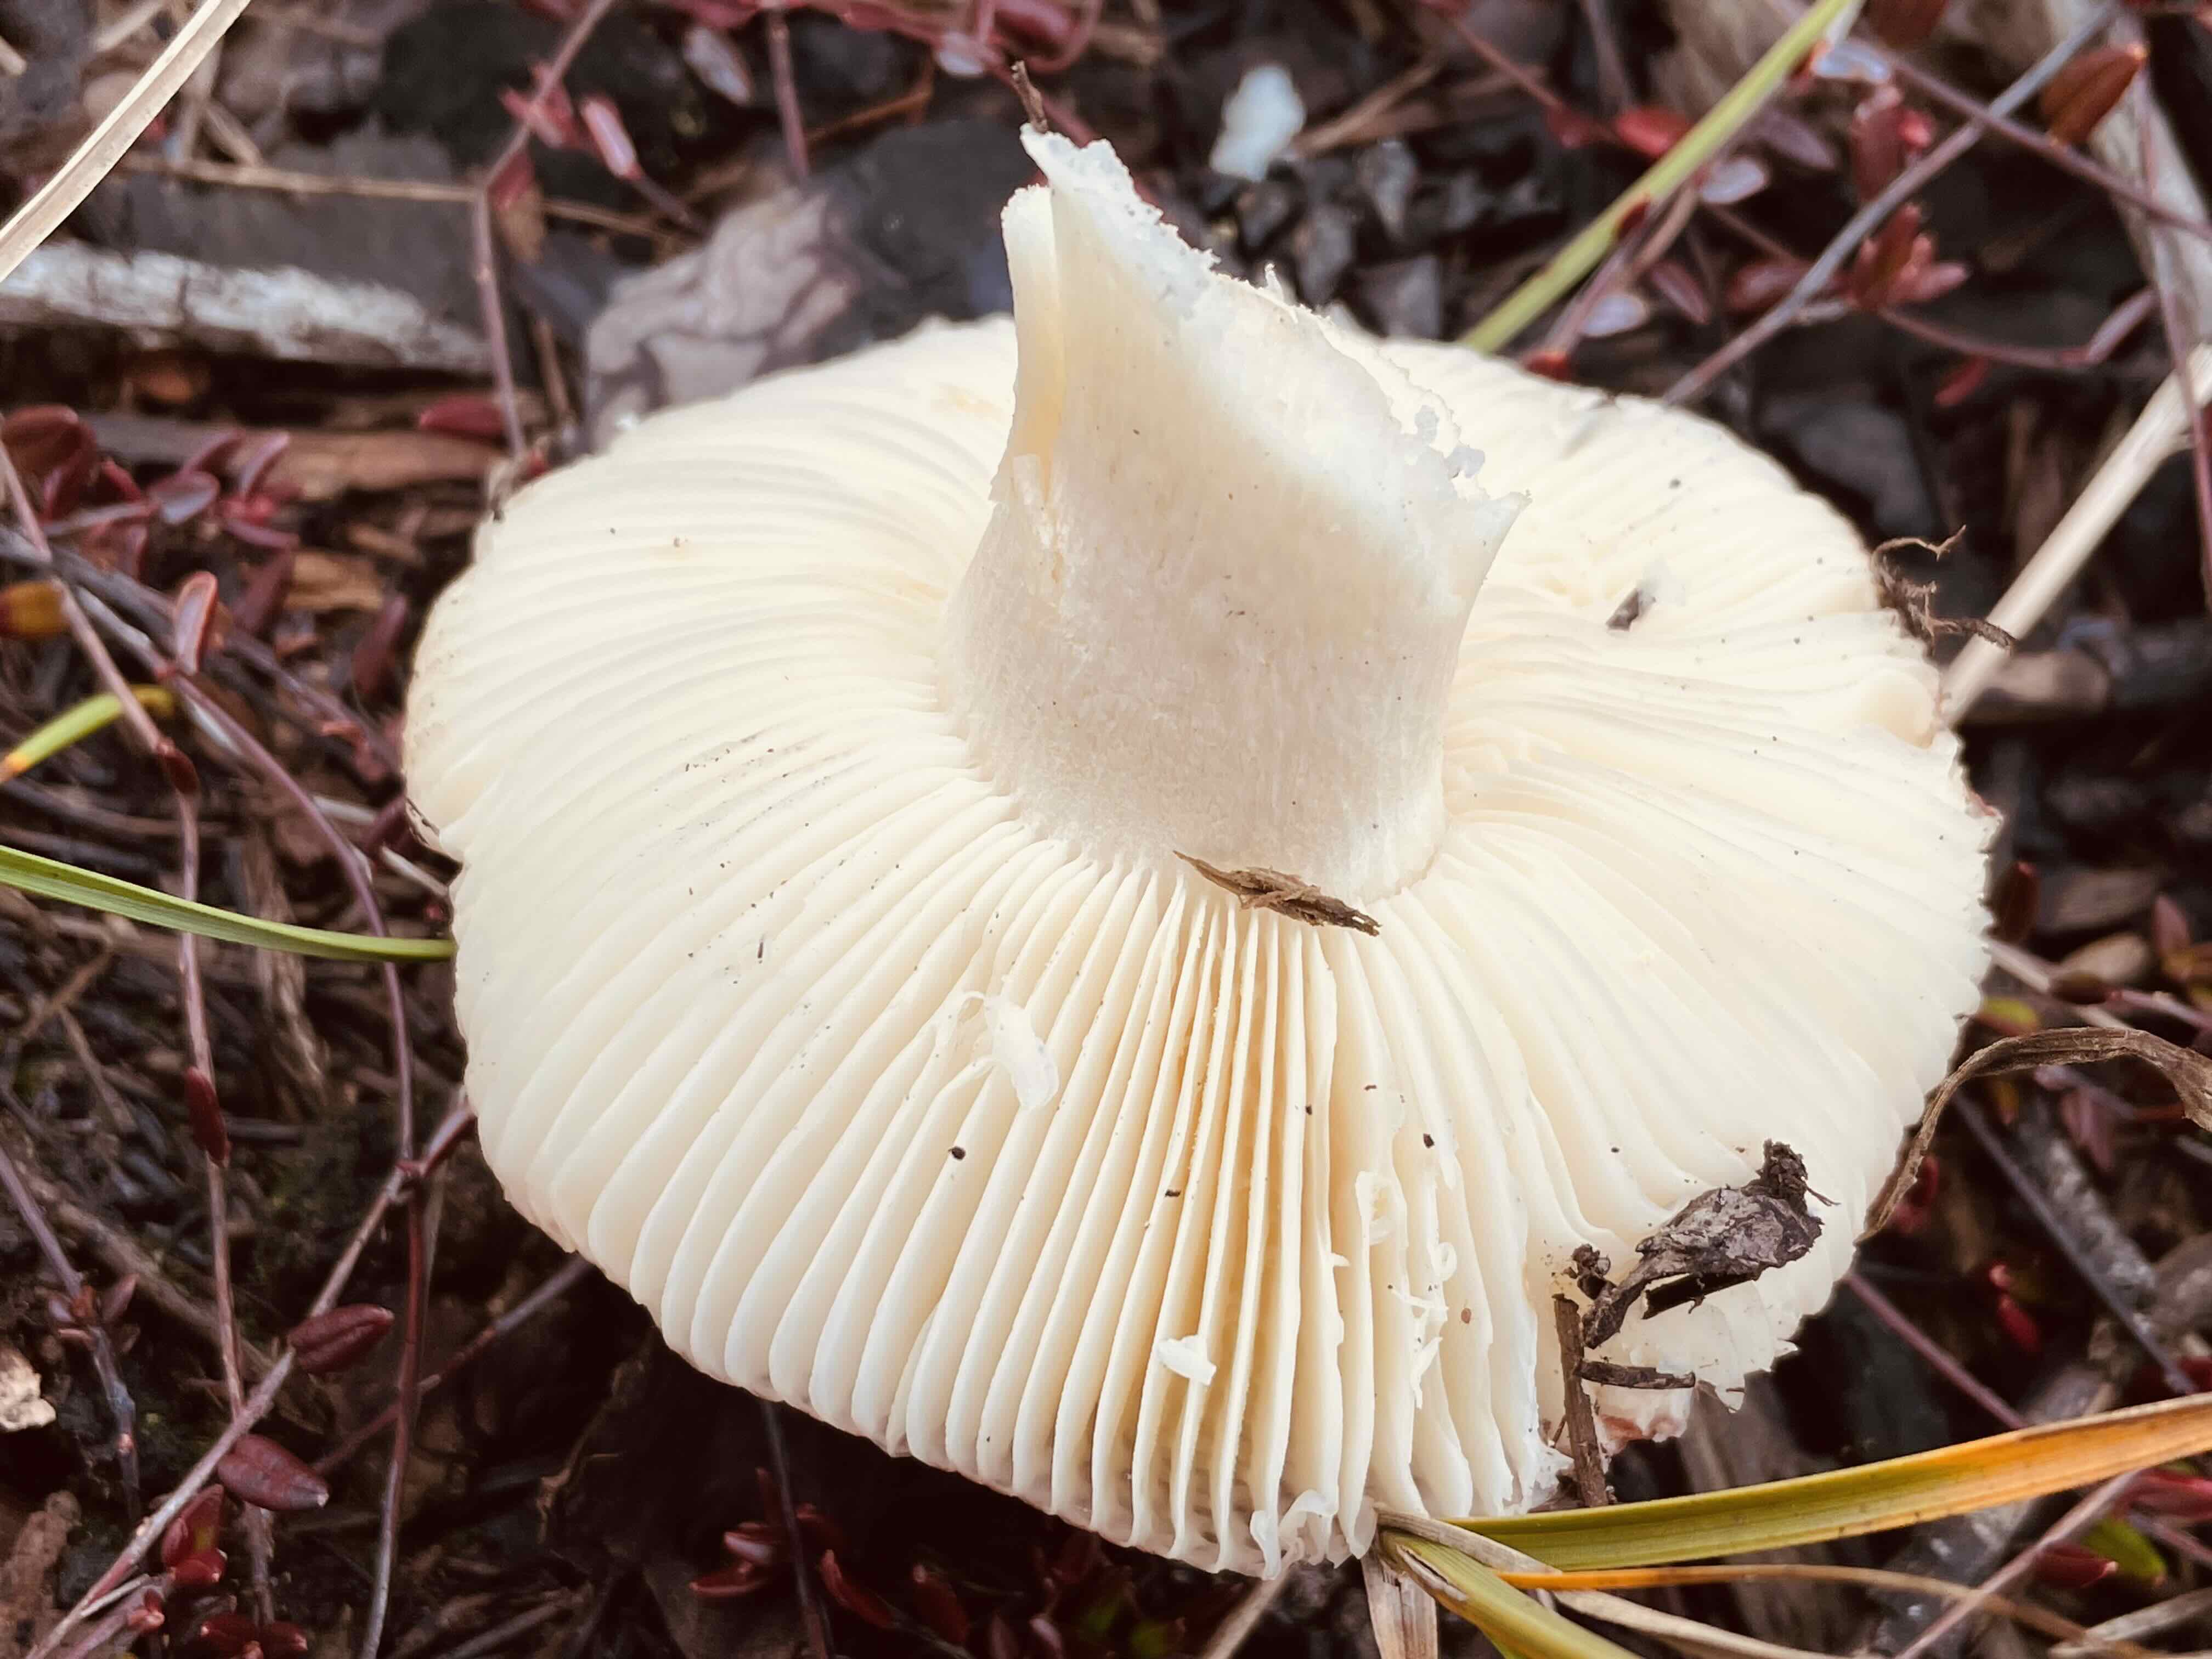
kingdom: Fungi
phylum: Basidiomycota
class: Agaricomycetes
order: Russulales
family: Russulaceae
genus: Russula
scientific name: Russula subrubens
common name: pile-skørhat
